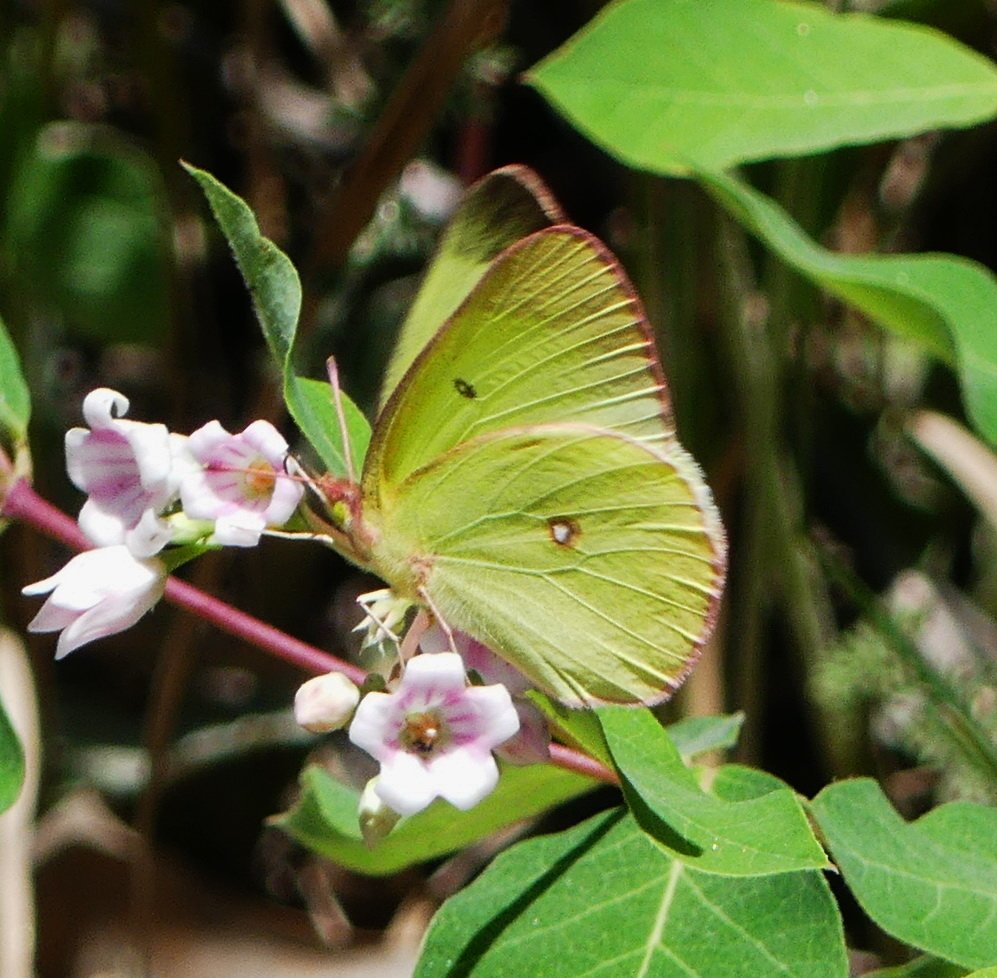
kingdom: Animalia
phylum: Arthropoda
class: Insecta
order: Lepidoptera
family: Pieridae
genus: Colias
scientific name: Colias interior
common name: Pink-edged Sulphur
